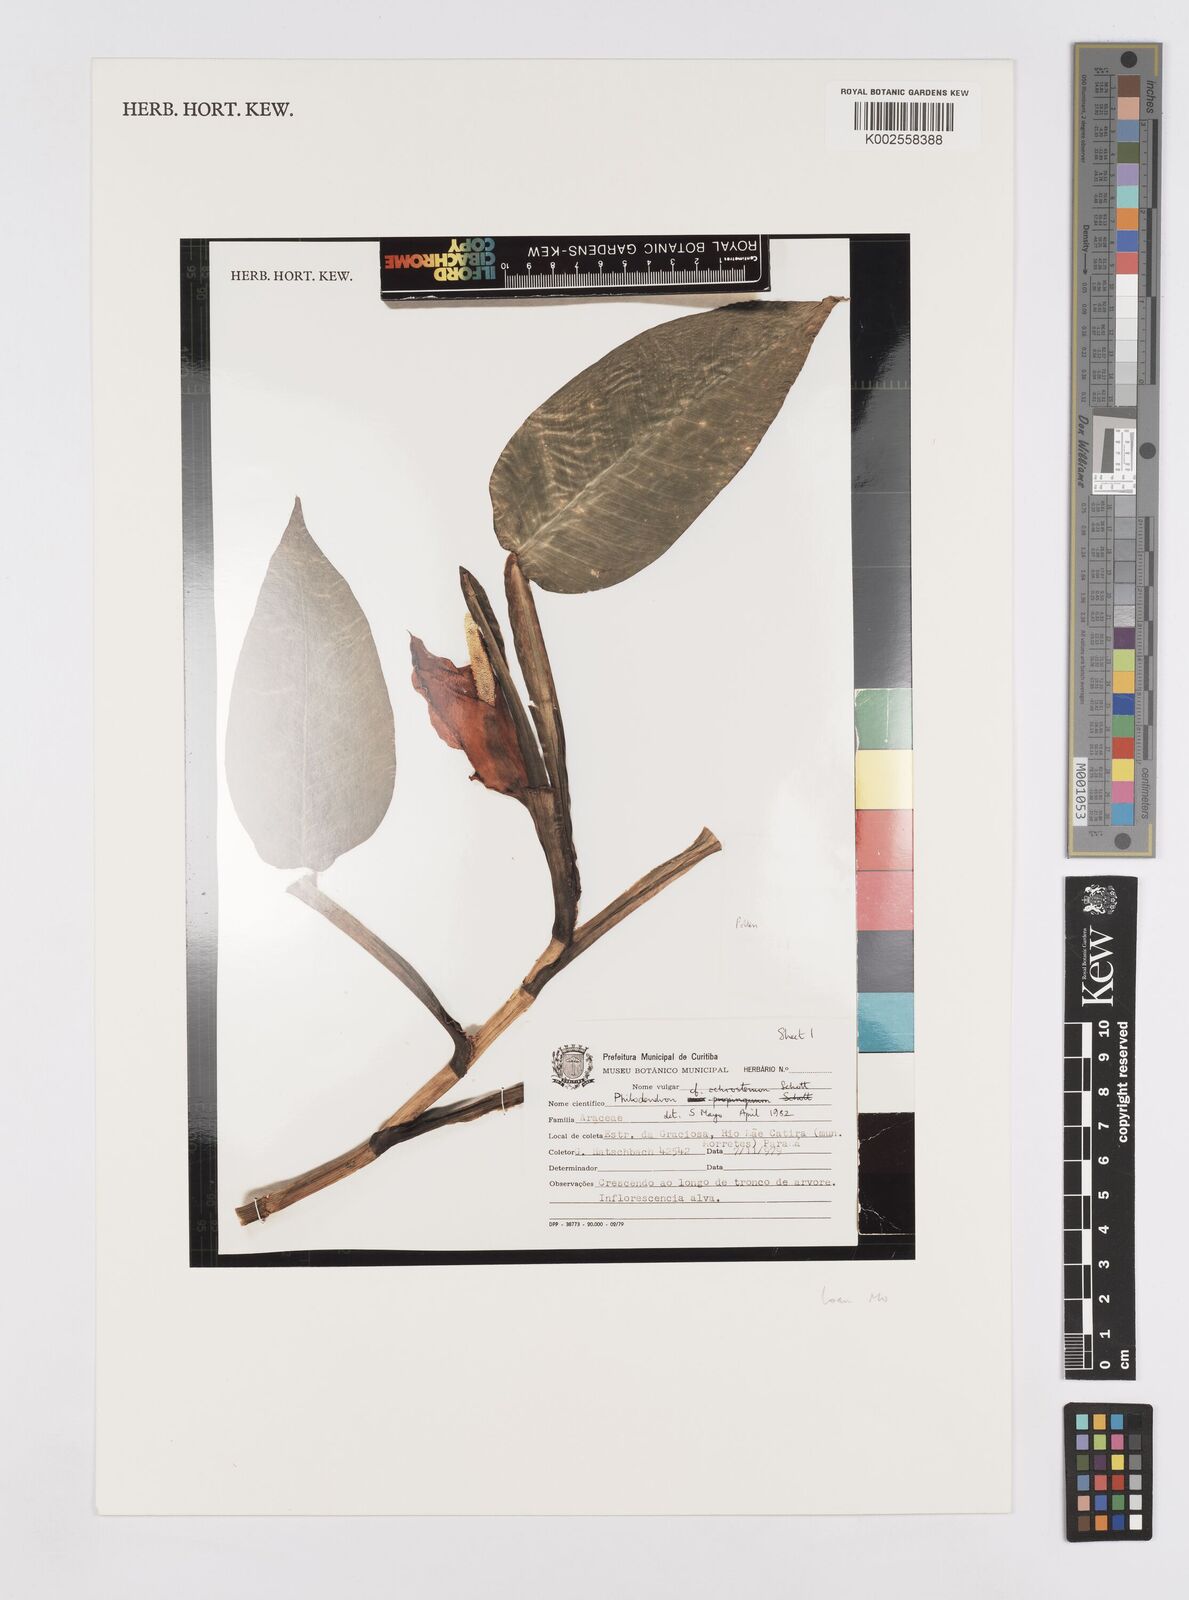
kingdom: Plantae
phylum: Tracheophyta
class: Liliopsida
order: Alismatales
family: Araceae
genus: Philodendron
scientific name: Philodendron ochrostemon
